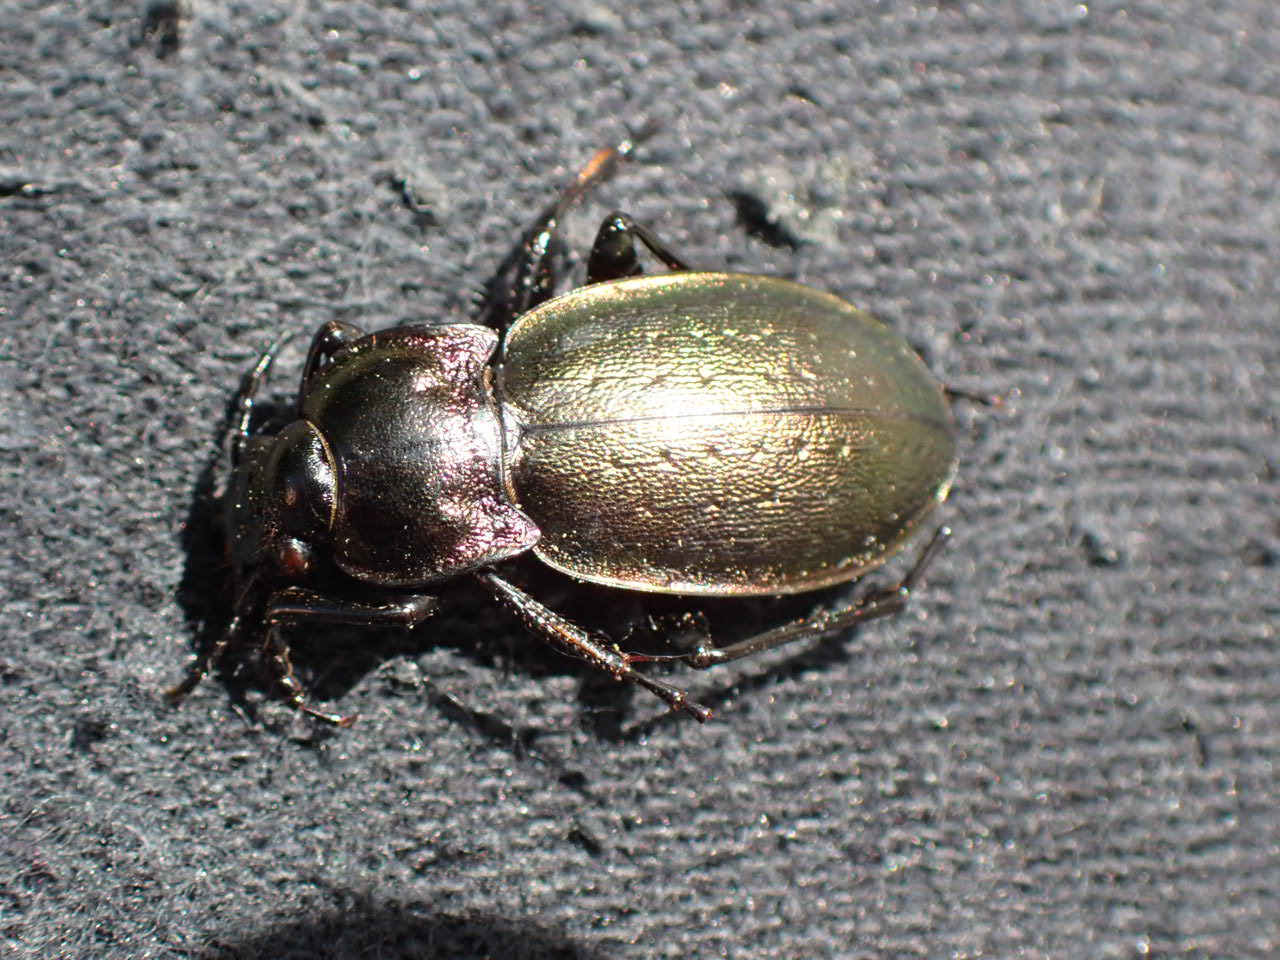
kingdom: Animalia
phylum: Arthropoda
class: Insecta
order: Coleoptera
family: Carabidae
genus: Carabus
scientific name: Carabus nemoralis
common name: Kratløber
